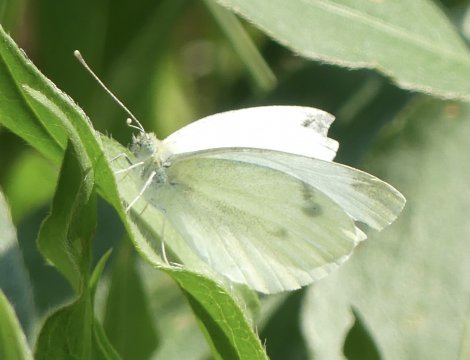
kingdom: Animalia
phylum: Arthropoda
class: Insecta
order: Lepidoptera
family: Pieridae
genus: Pieris
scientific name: Pieris rapae
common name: Cabbage White
